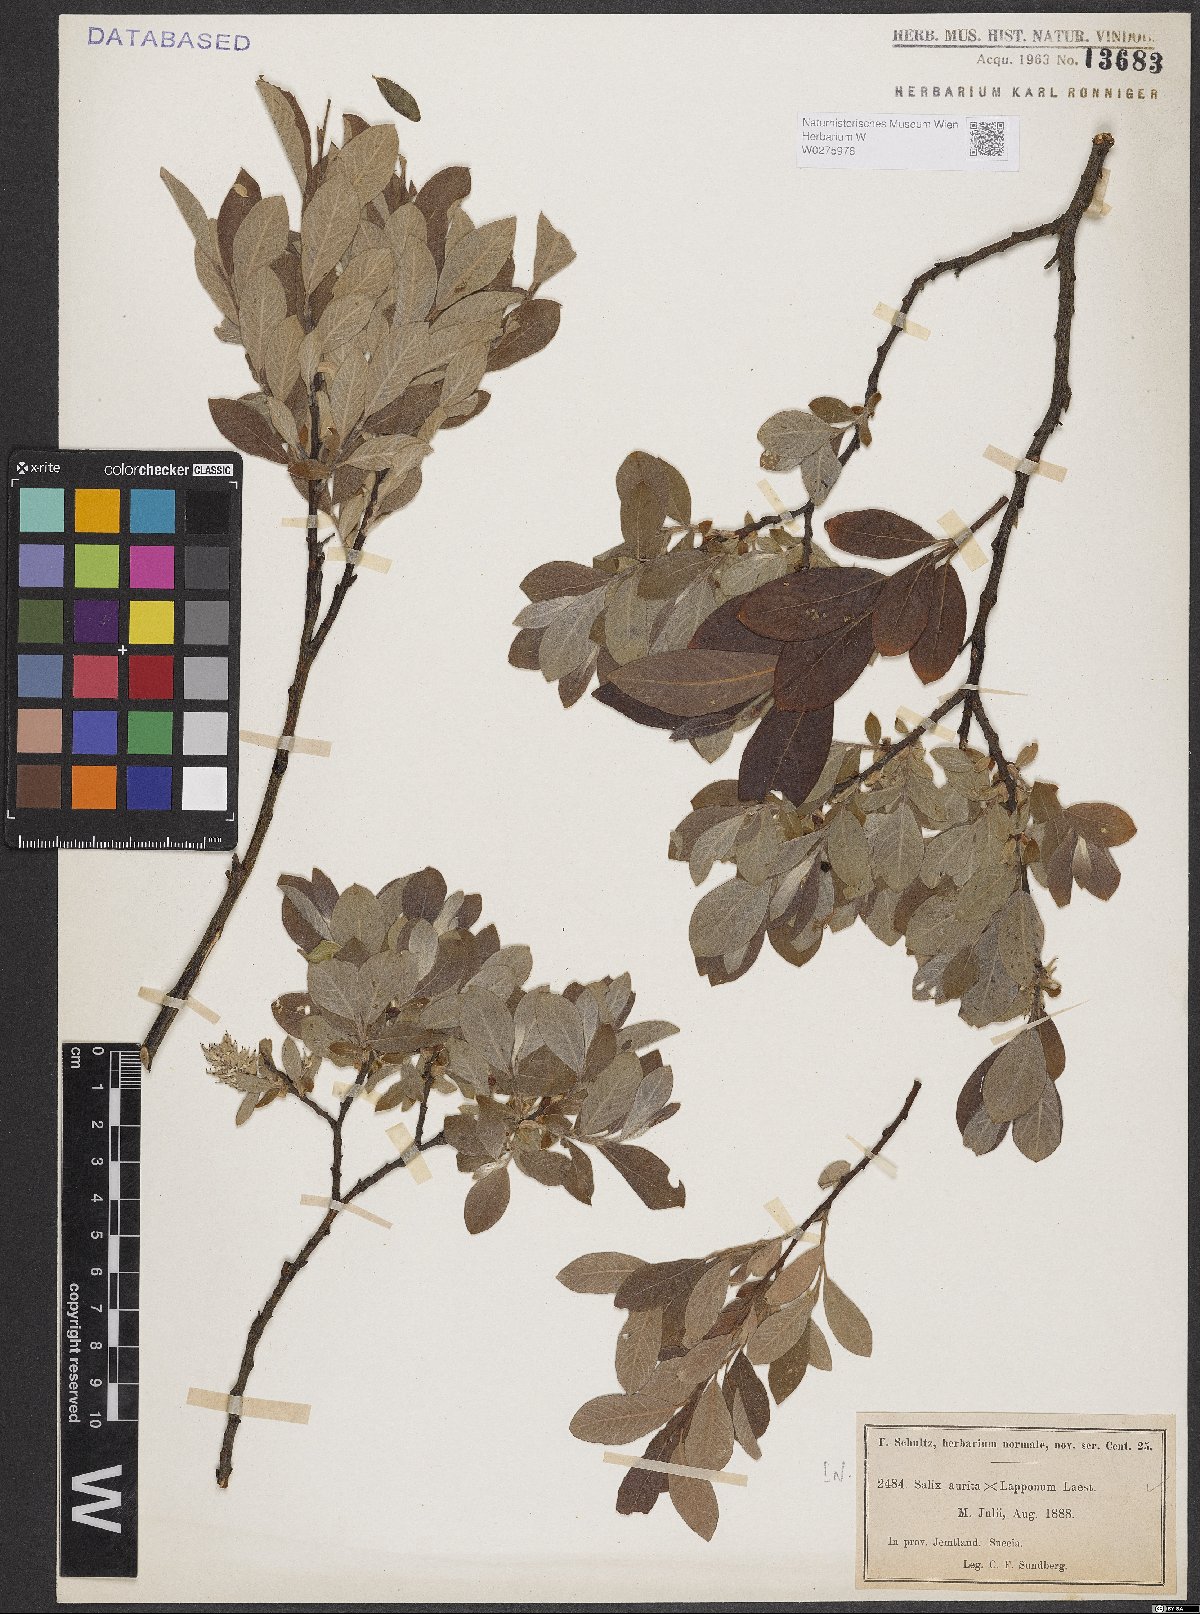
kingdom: Plantae
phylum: Tracheophyta
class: Magnoliopsida
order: Malpighiales
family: Salicaceae
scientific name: Salicaceae
